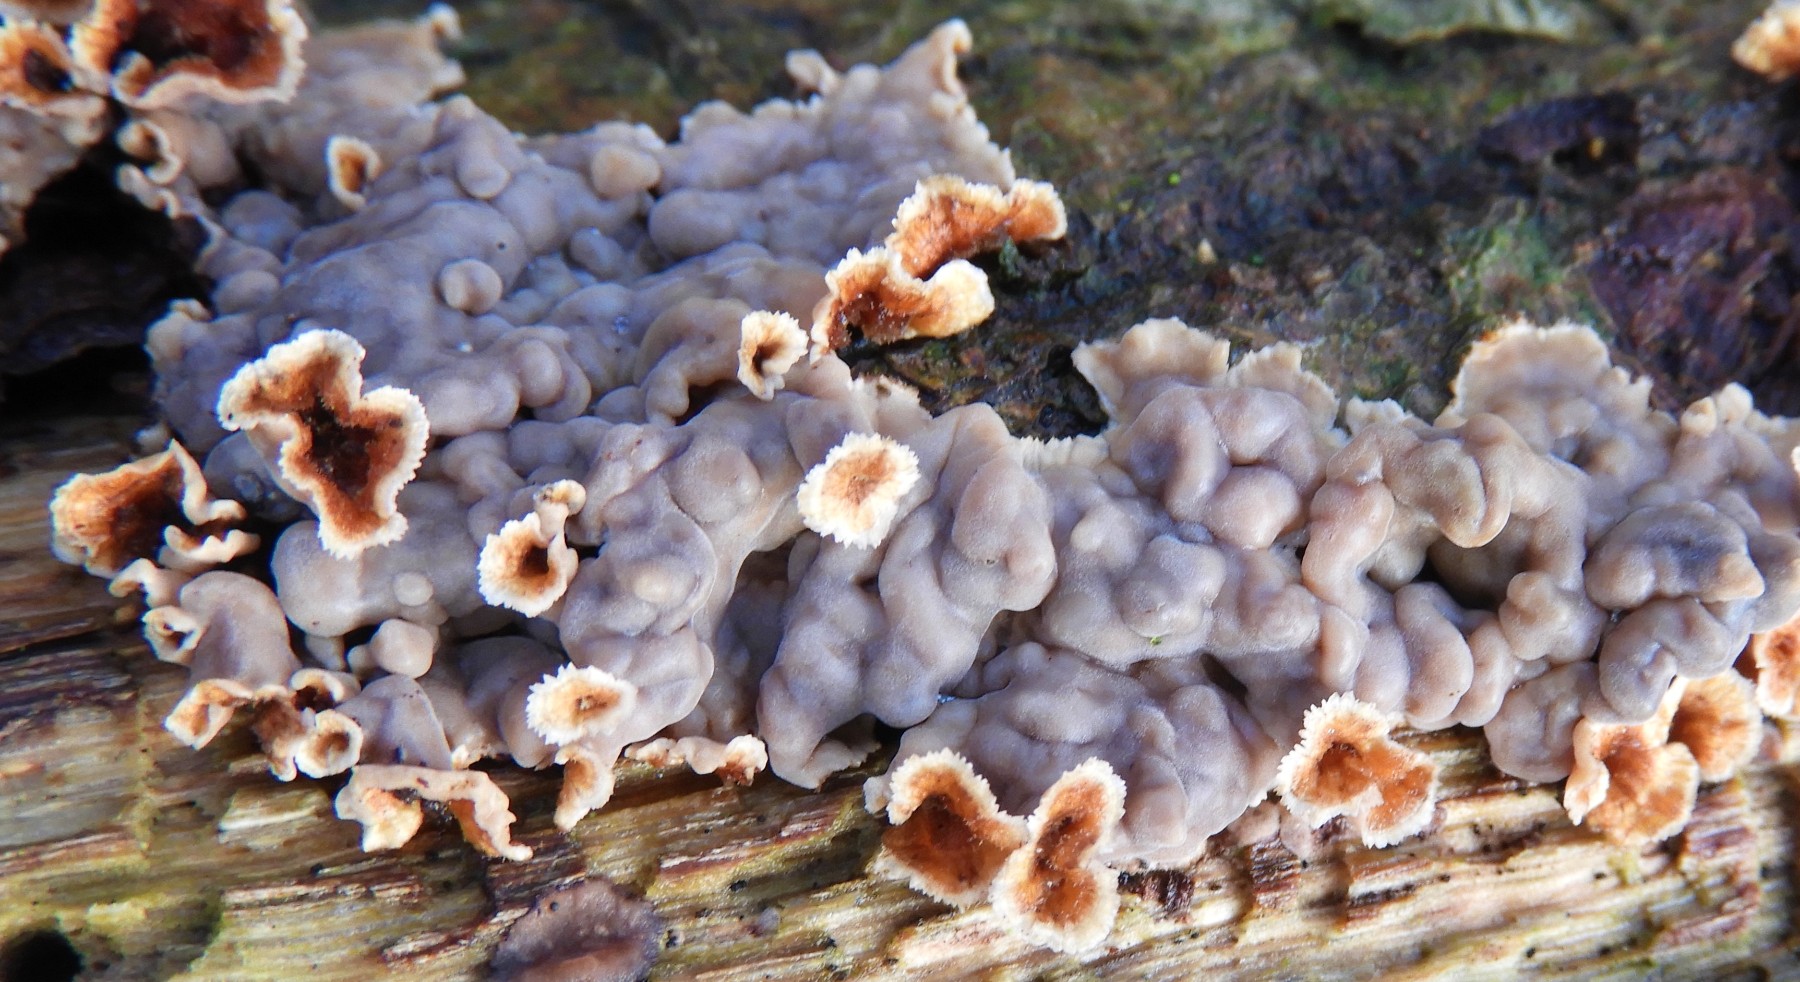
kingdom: Fungi
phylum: Basidiomycota
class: Agaricomycetes
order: Corticiales
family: Corticiaceae
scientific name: Corticiaceae
